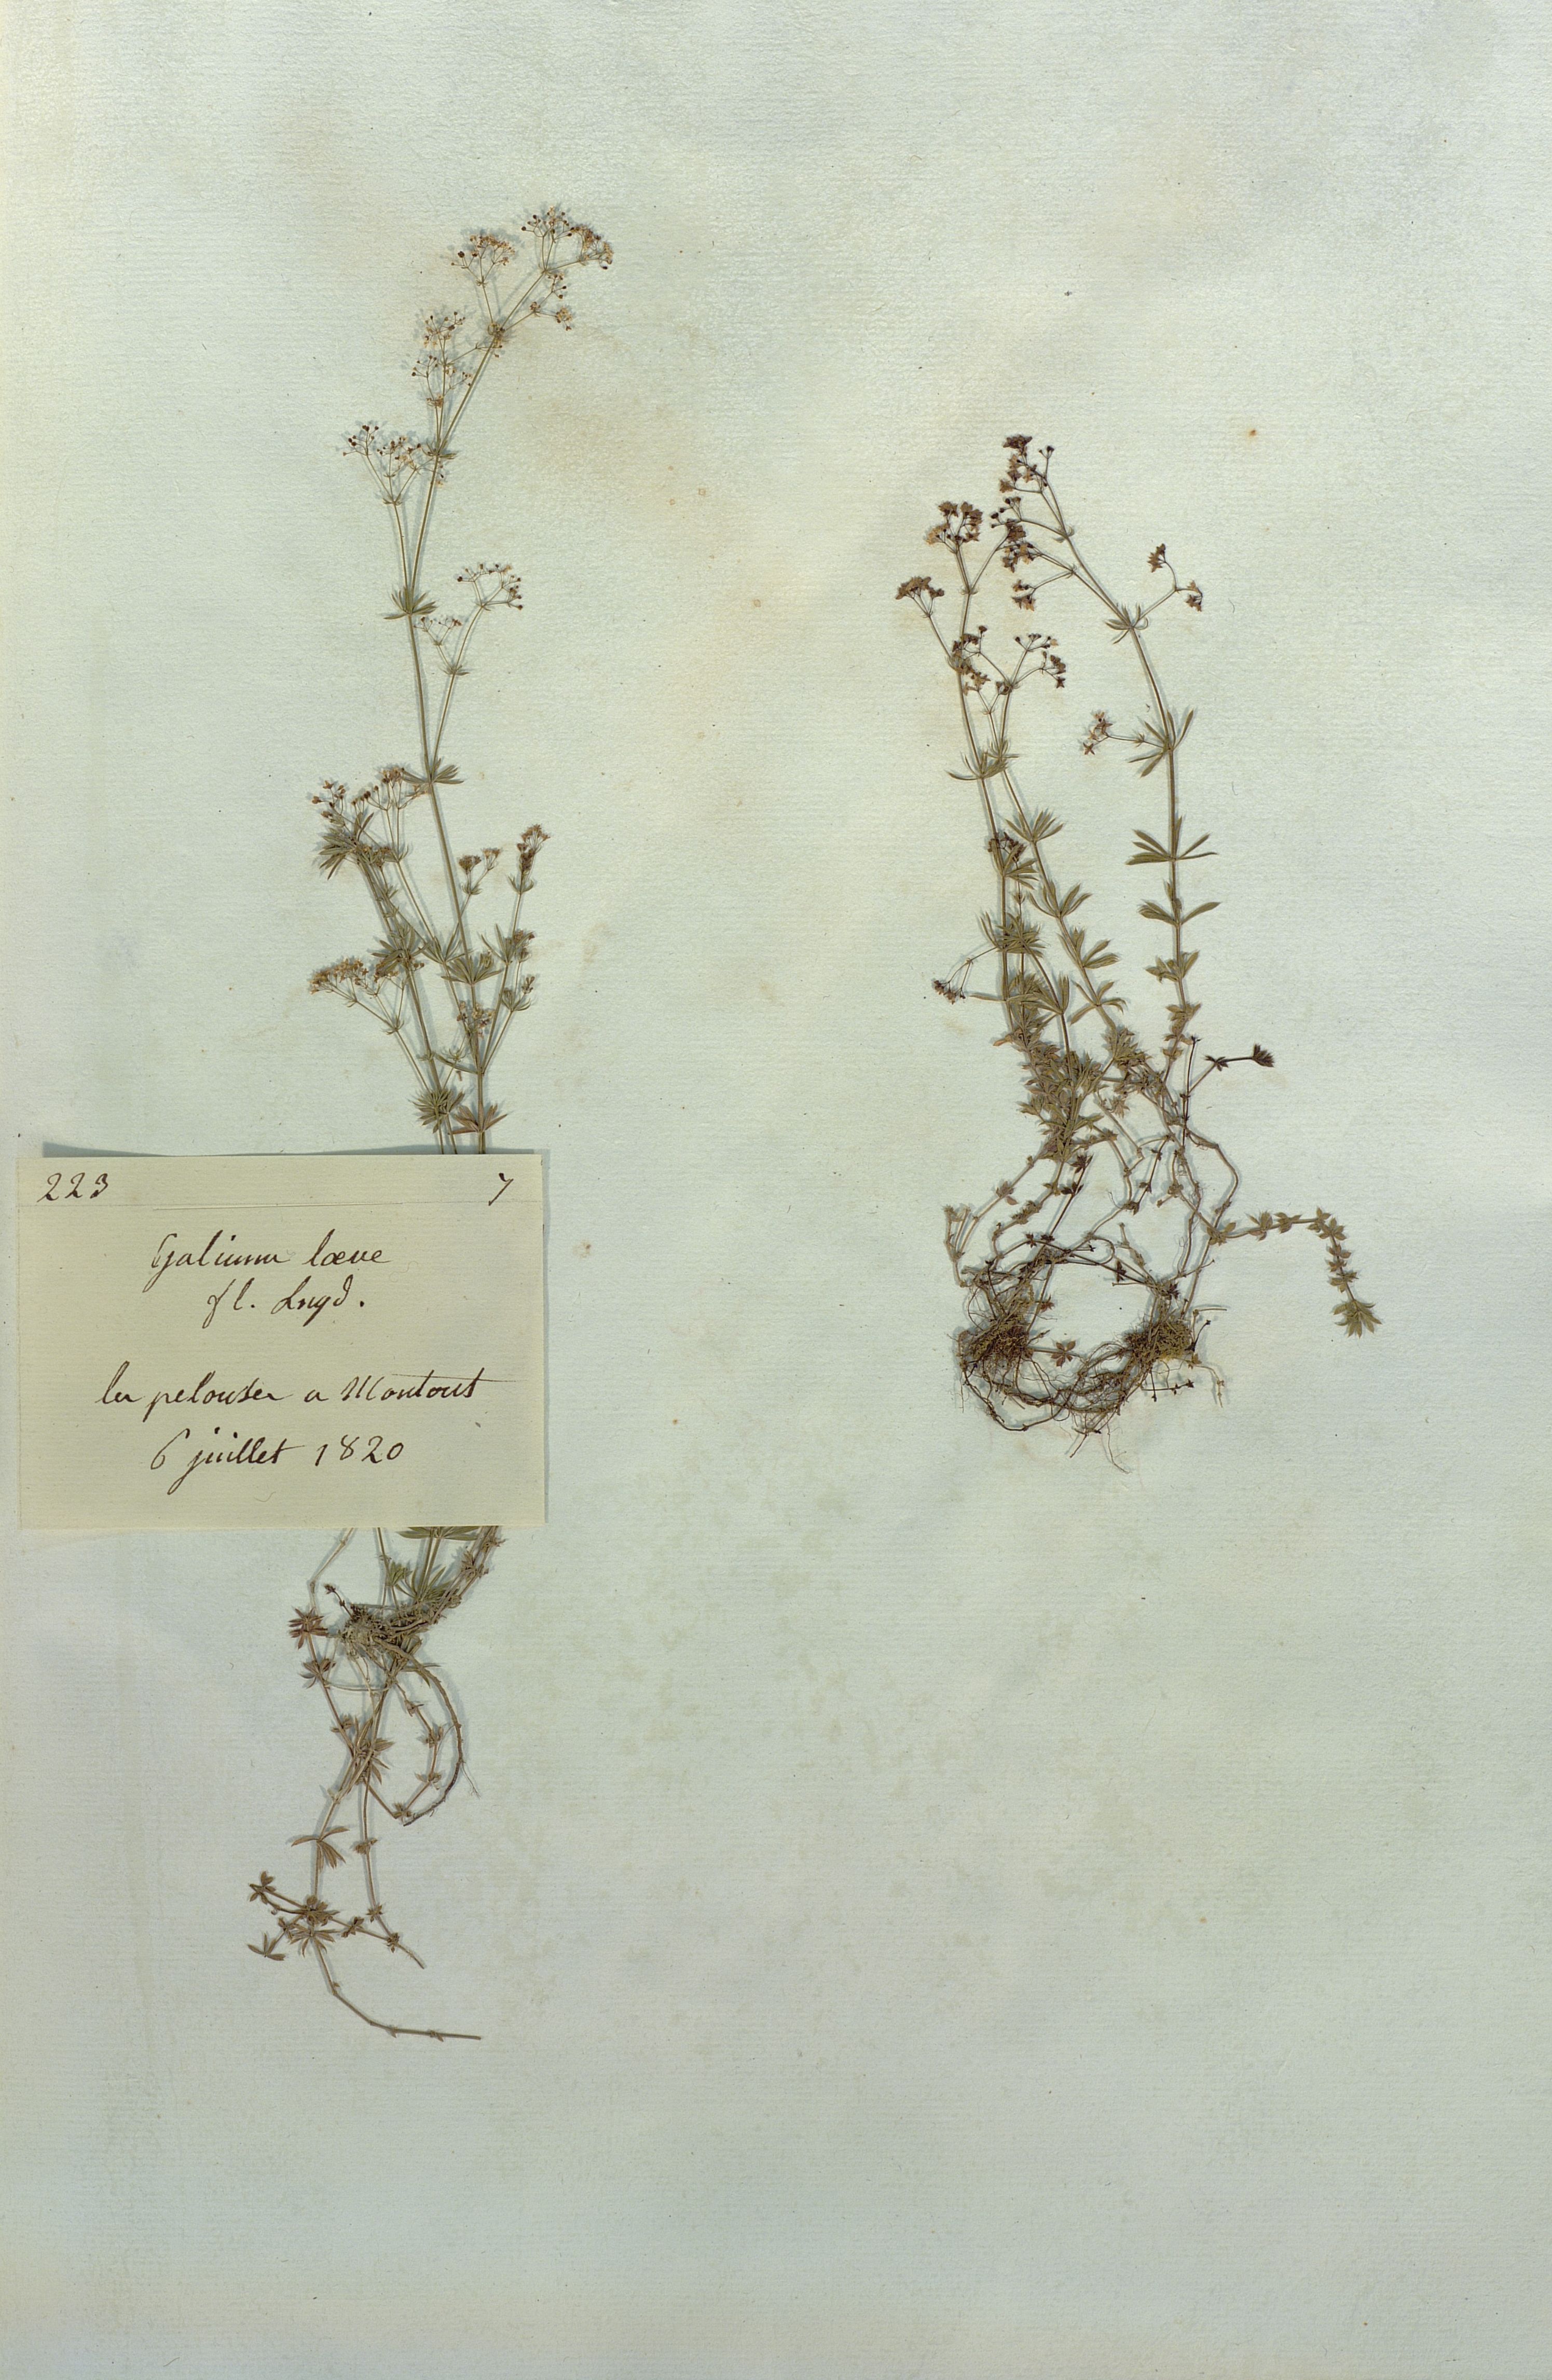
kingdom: Plantae
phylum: Tracheophyta
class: Magnoliopsida
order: Gentianales
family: Rubiaceae
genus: Galium
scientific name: Galium pumilum
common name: Slender bedstraw
